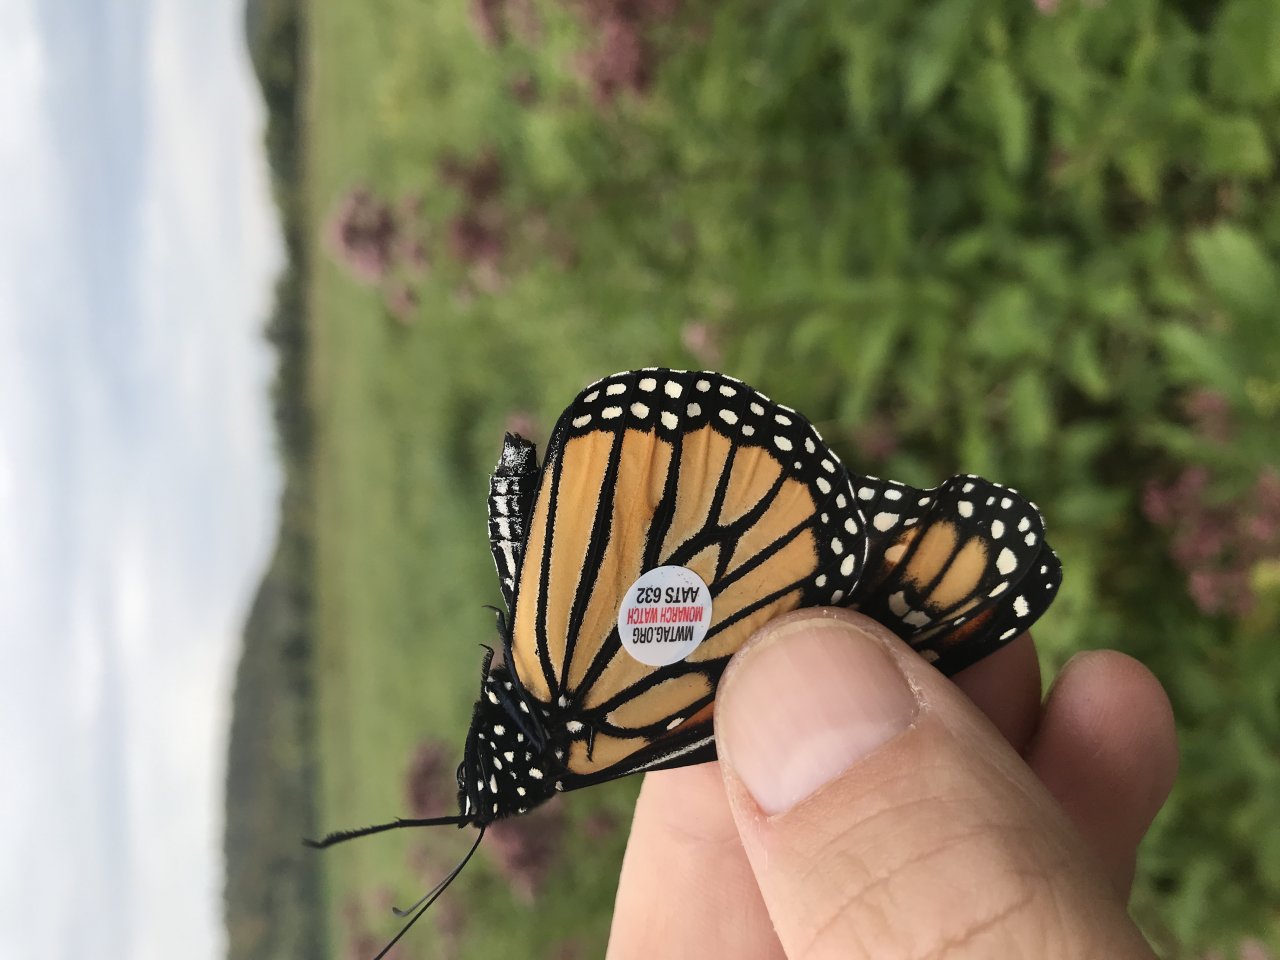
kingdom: Animalia
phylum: Arthropoda
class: Insecta
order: Lepidoptera
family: Nymphalidae
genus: Danaus
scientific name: Danaus plexippus
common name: Monarch
